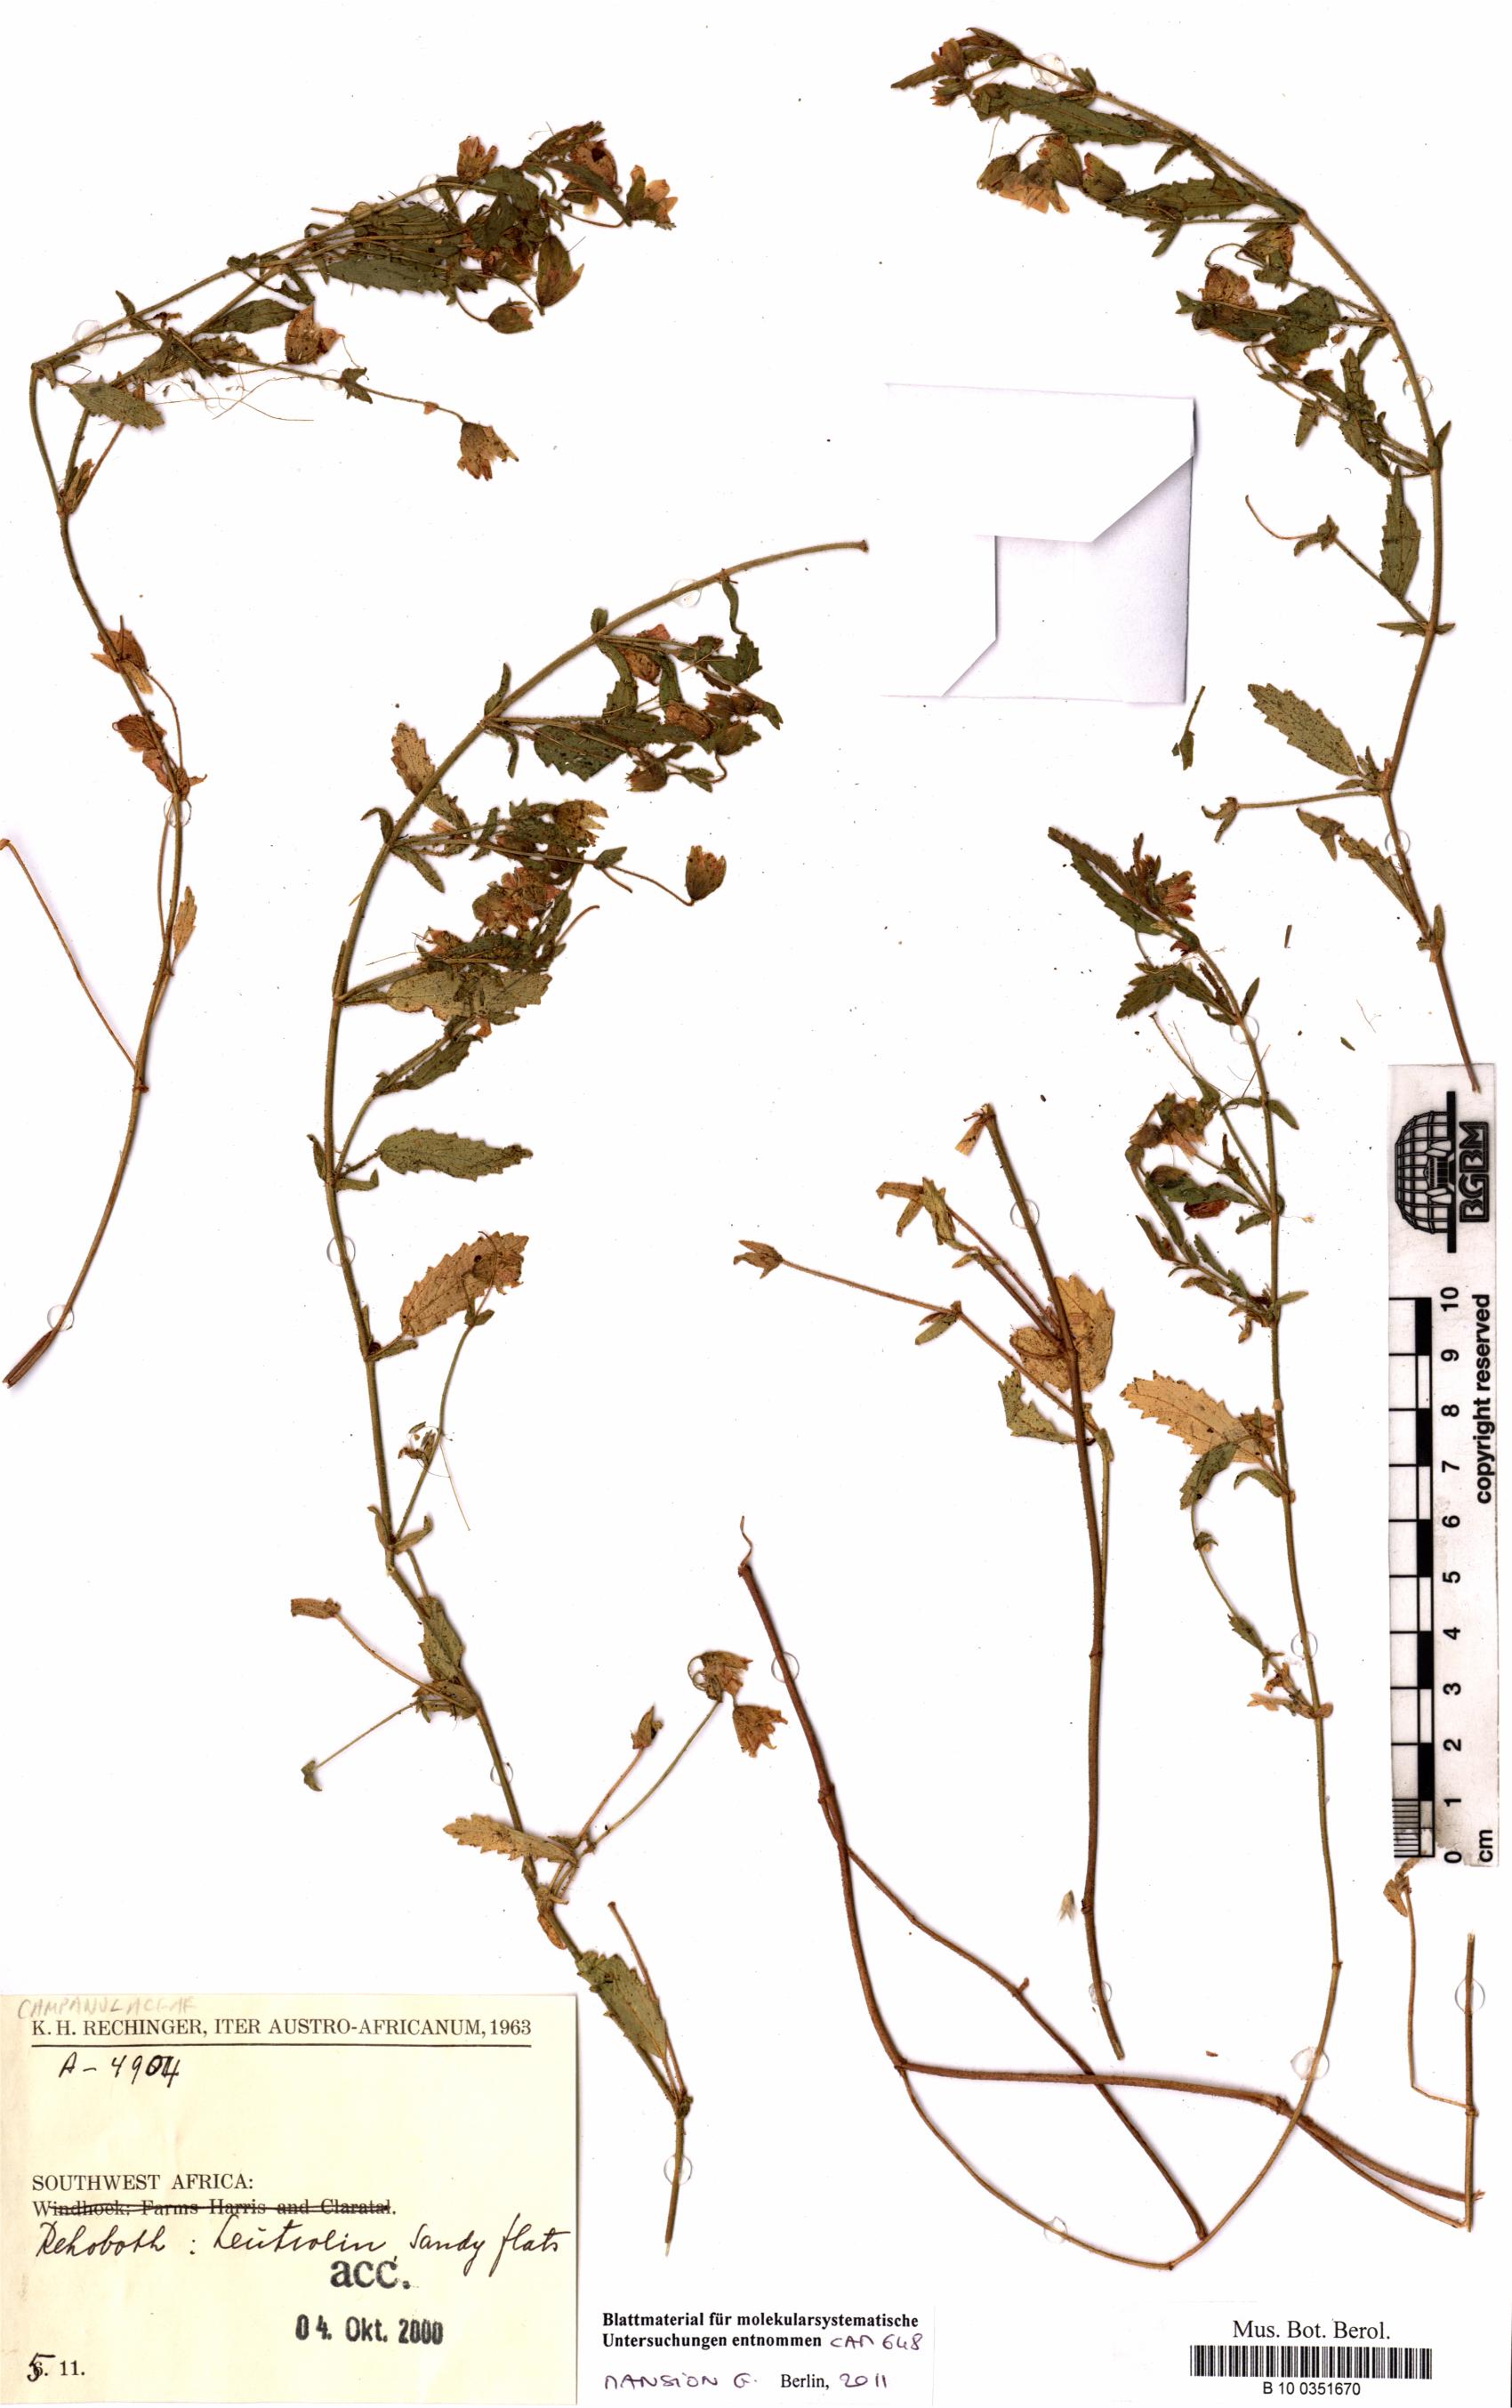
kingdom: Plantae
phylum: Tracheophyta
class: Magnoliopsida
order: Asterales
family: Campanulaceae
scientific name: Campanulaceae
